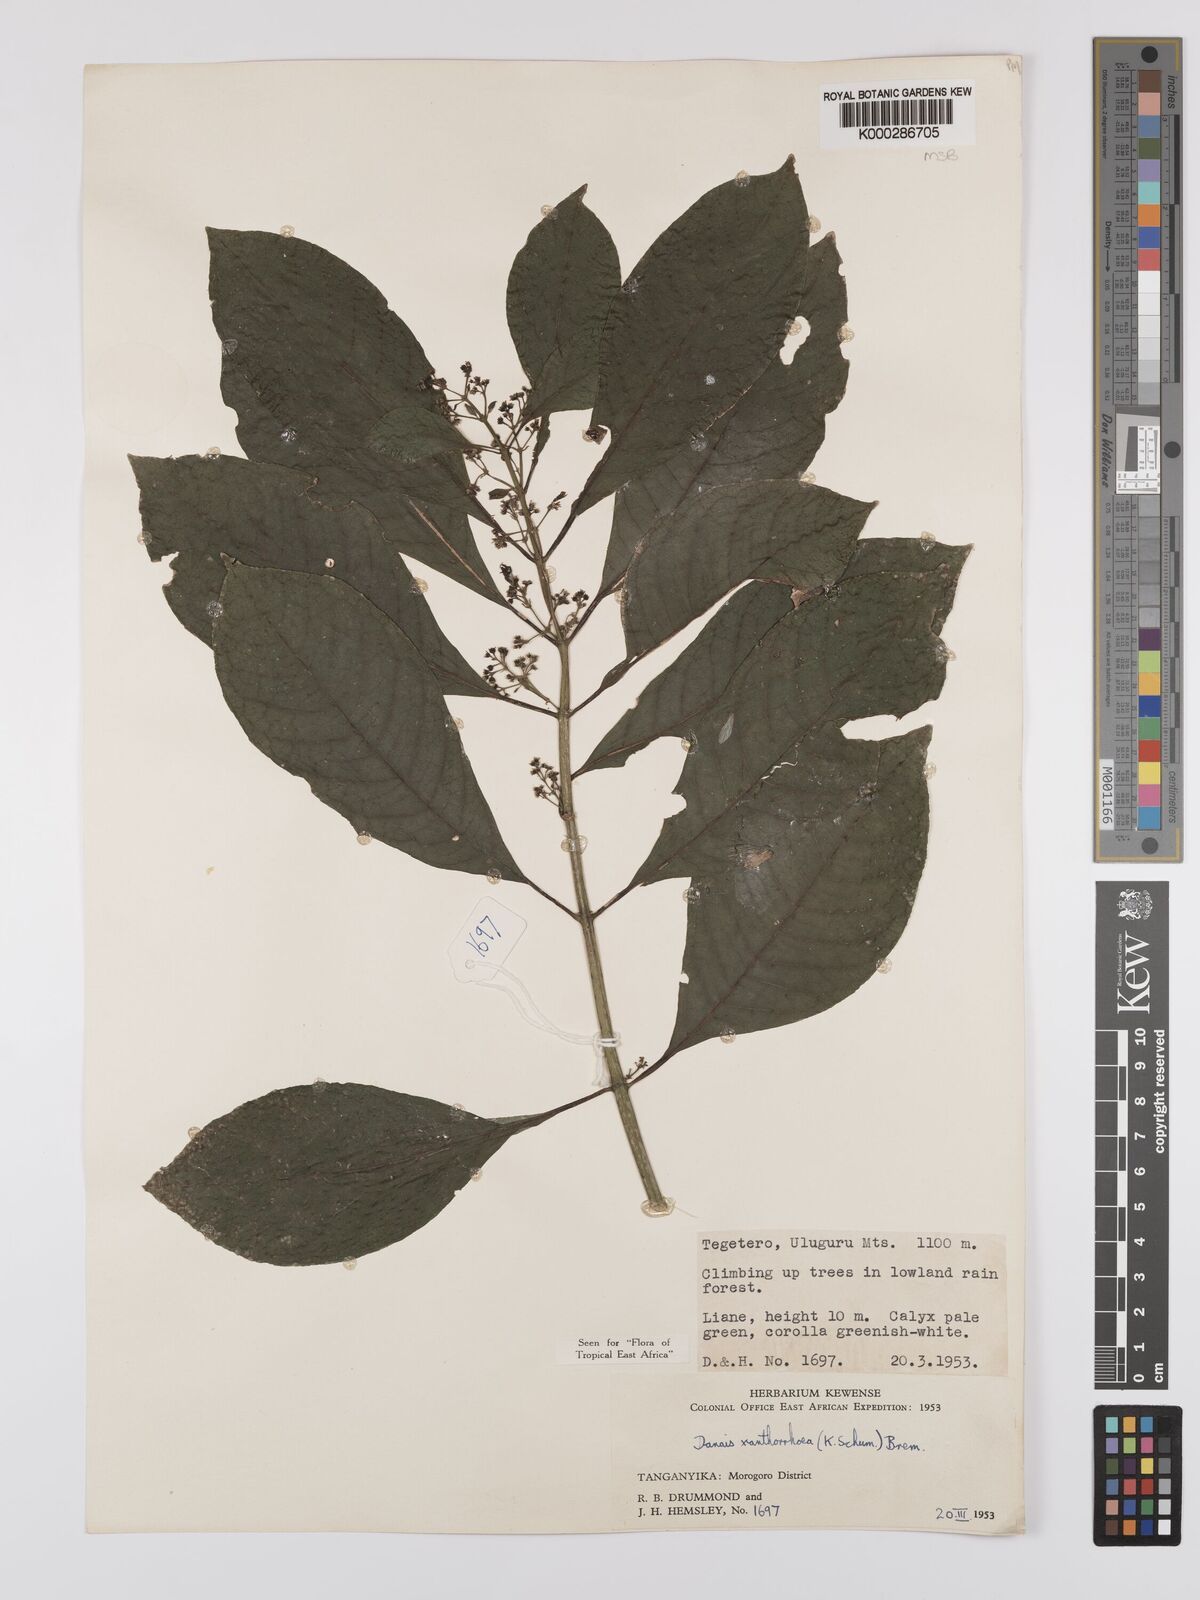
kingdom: Plantae
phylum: Tracheophyta
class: Magnoliopsida
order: Gentianales
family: Rubiaceae
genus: Danais
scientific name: Danais xanthorrhoea
